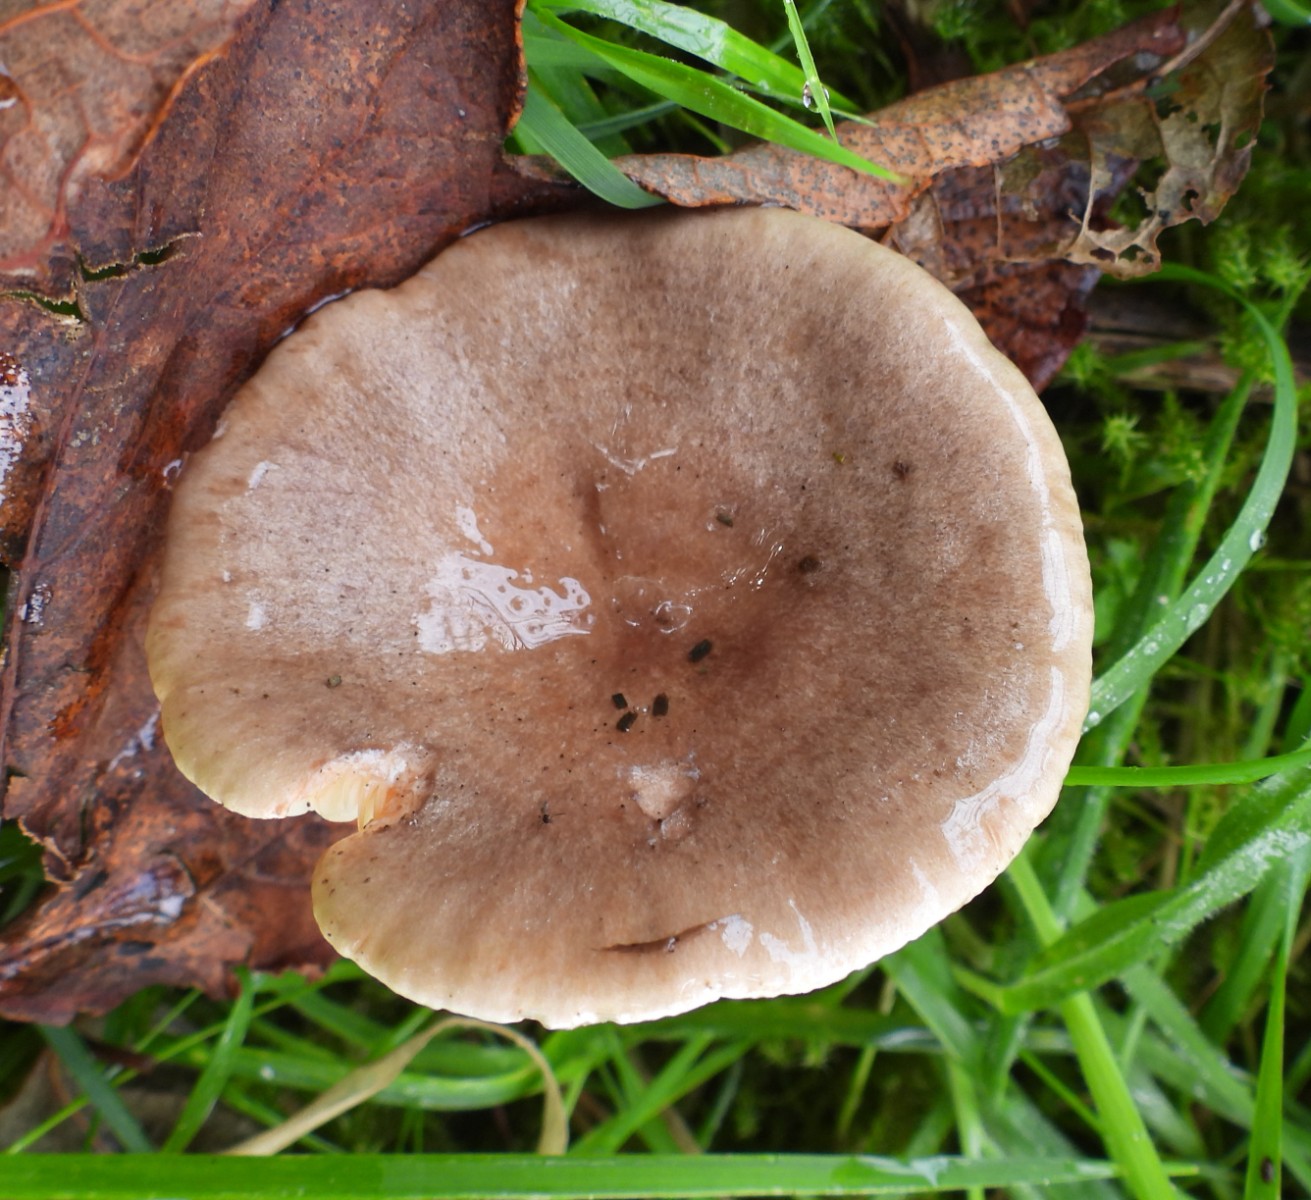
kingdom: Fungi
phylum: Basidiomycota
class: Agaricomycetes
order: Russulales
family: Russulaceae
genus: Lactarius
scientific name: Lactarius pyrogalus
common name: hassel-mælkehat
